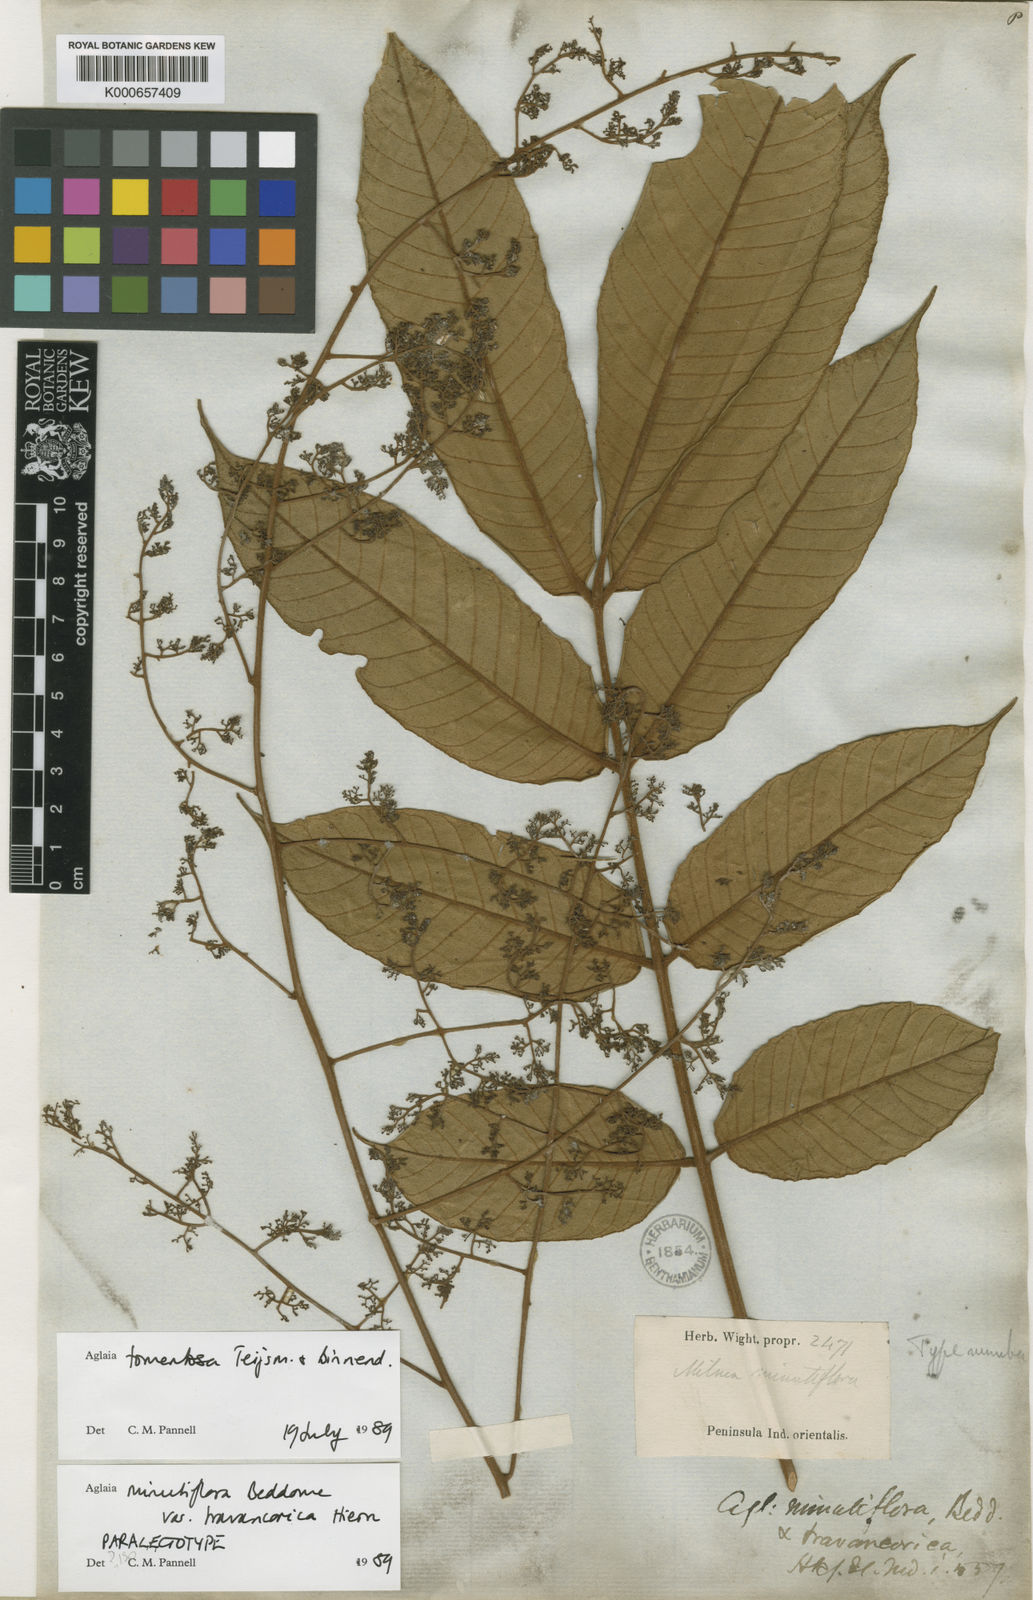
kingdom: Plantae
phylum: Tracheophyta
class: Magnoliopsida
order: Sapindales
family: Meliaceae
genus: Aglaia
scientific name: Aglaia tomentosa
